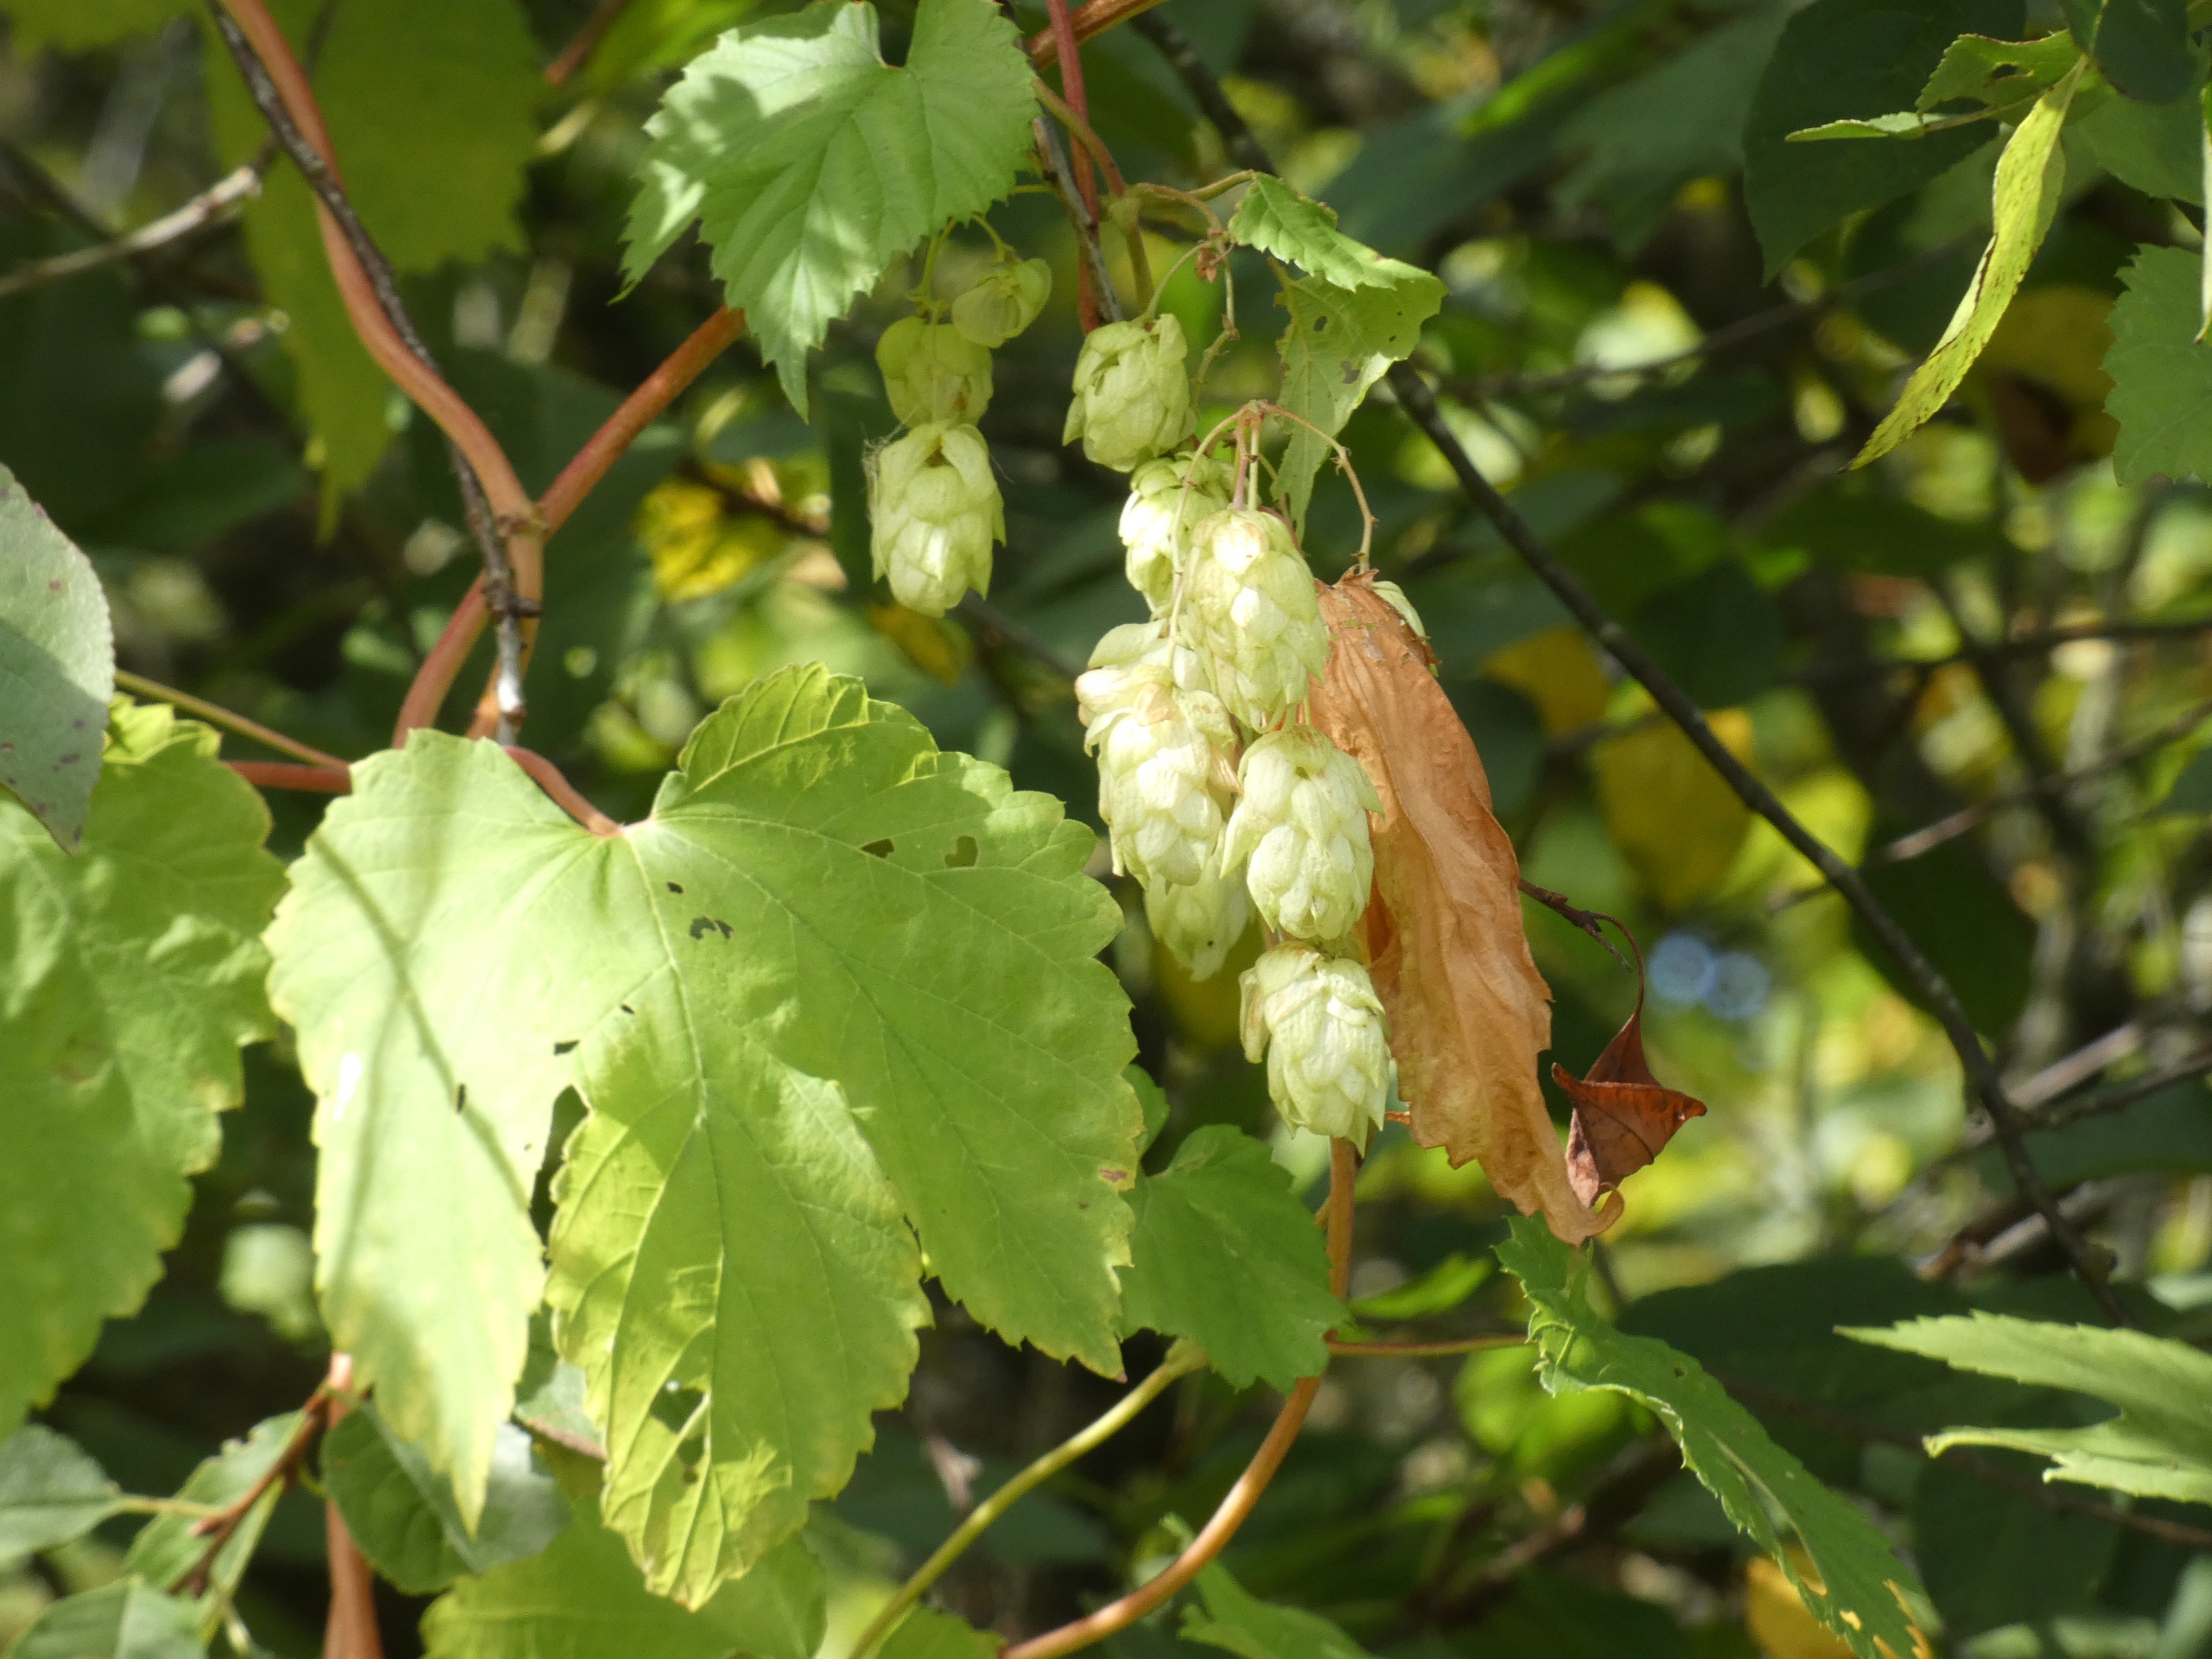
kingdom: Plantae
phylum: Tracheophyta
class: Magnoliopsida
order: Rosales
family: Cannabaceae
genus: Humulus
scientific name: Humulus lupulus
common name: Humle
